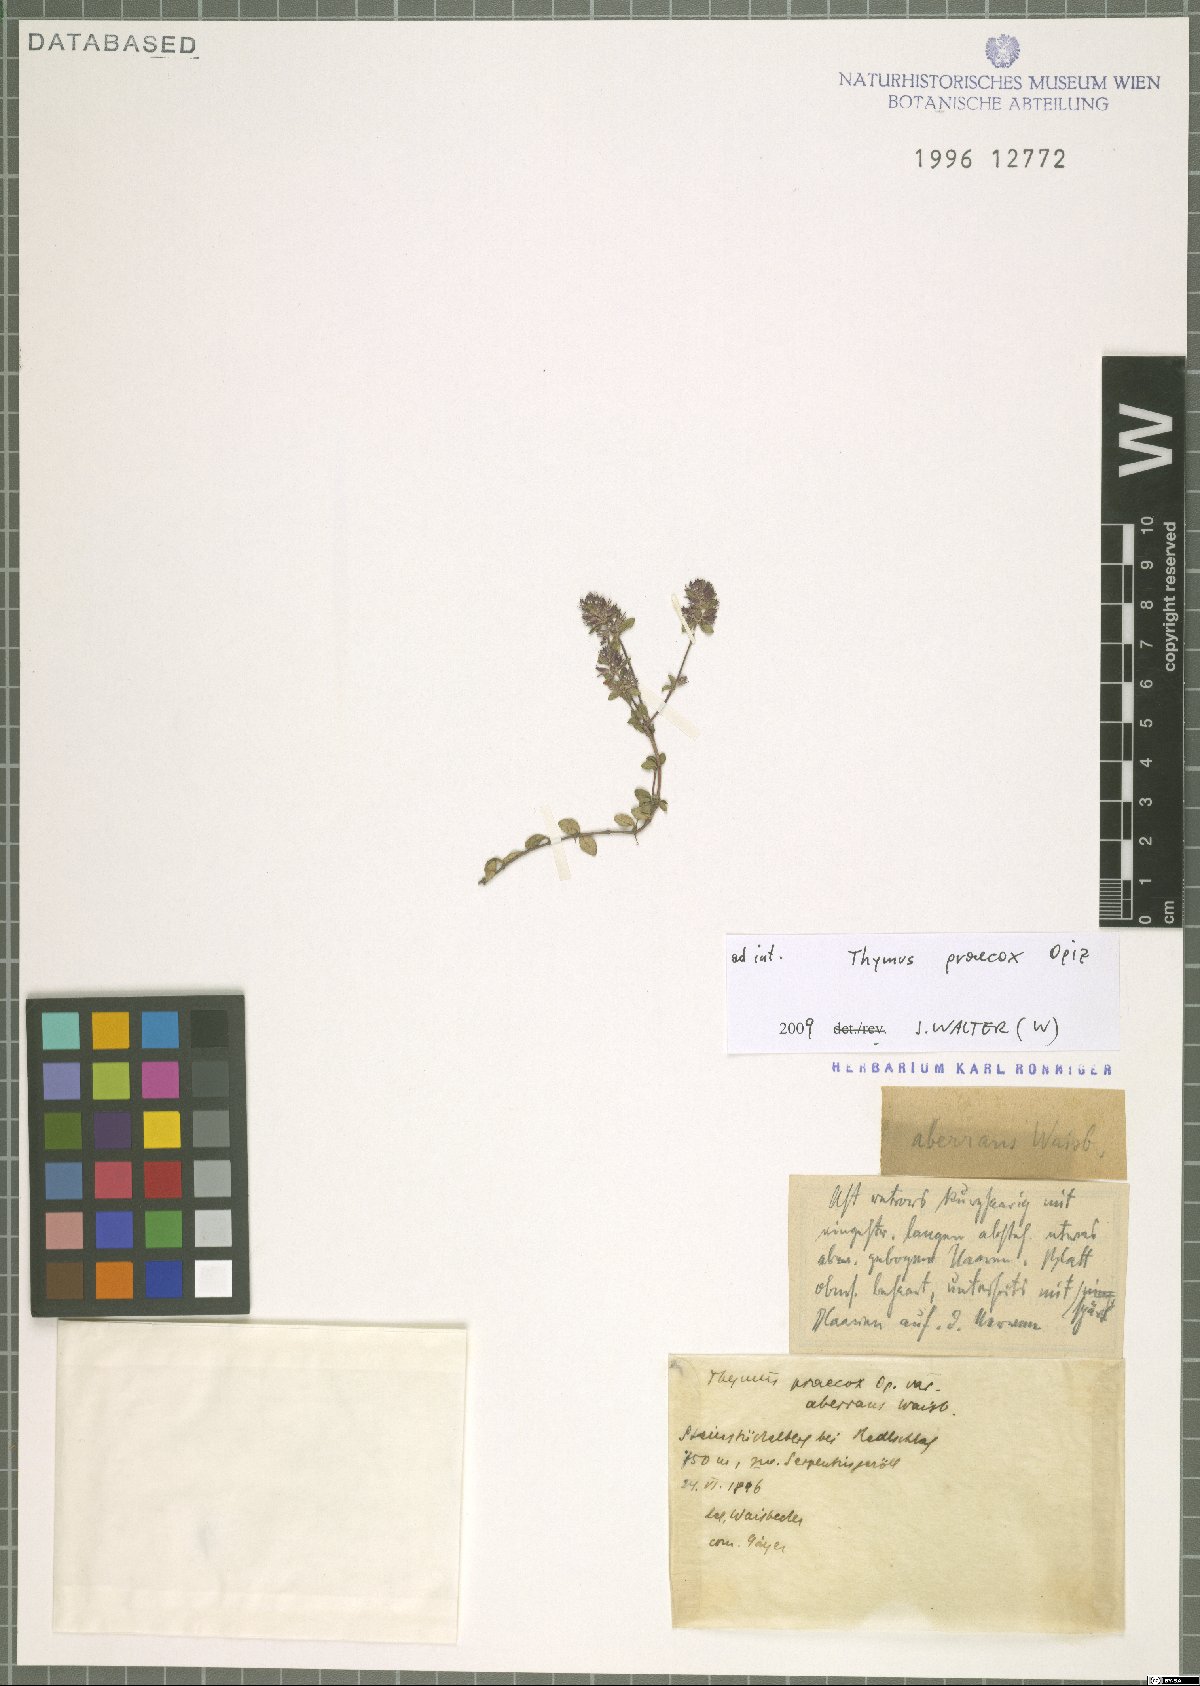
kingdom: Plantae
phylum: Tracheophyta
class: Magnoliopsida
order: Lamiales
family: Lamiaceae
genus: Thymus
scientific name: Thymus praecox
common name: Wild thyme
